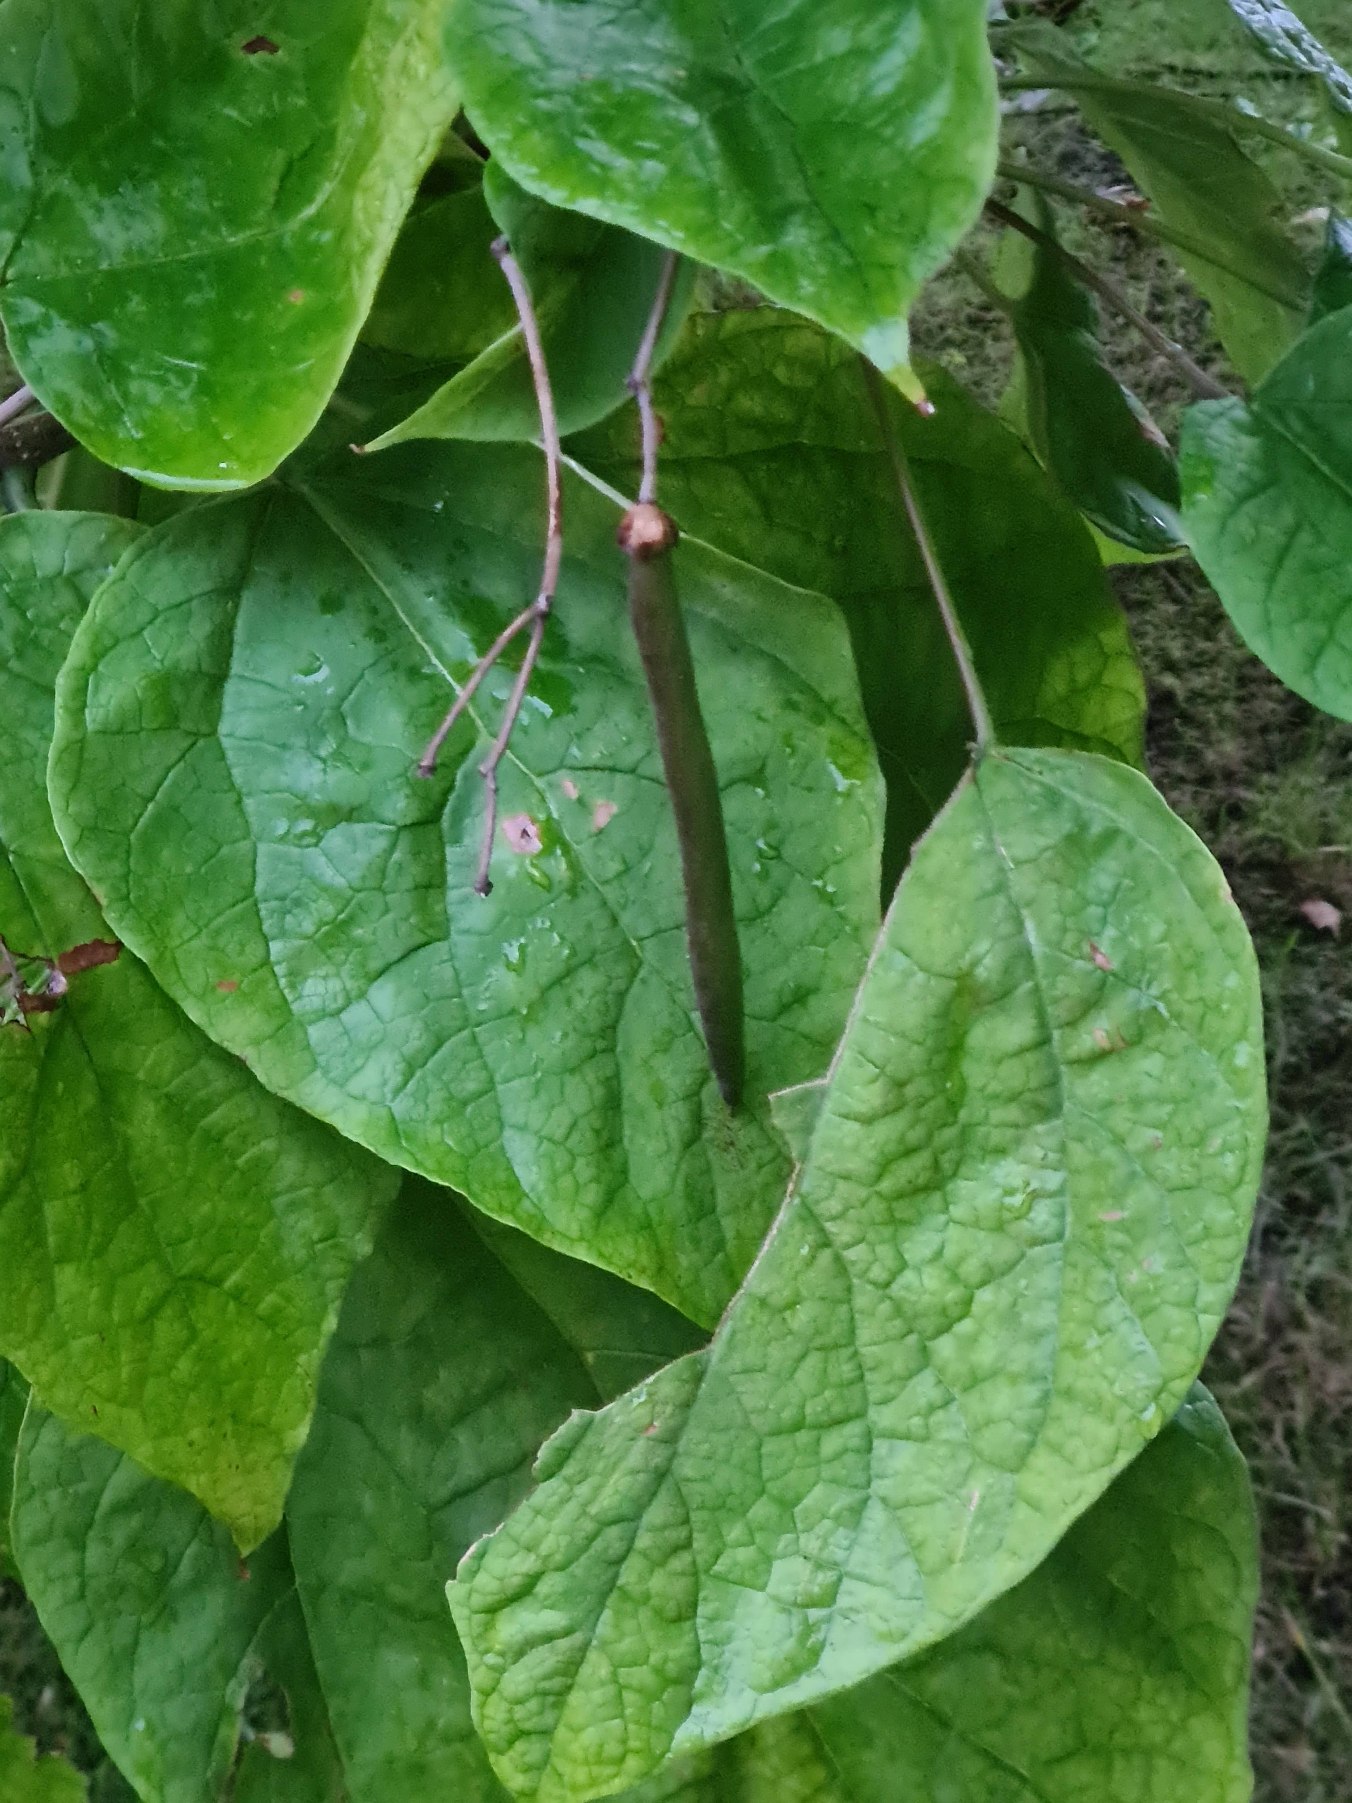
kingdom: Plantae
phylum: Tracheophyta
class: Magnoliopsida
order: Lamiales
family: Bignoniaceae
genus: Catalpa
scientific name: Catalpa
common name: Trompetkroneslægten
